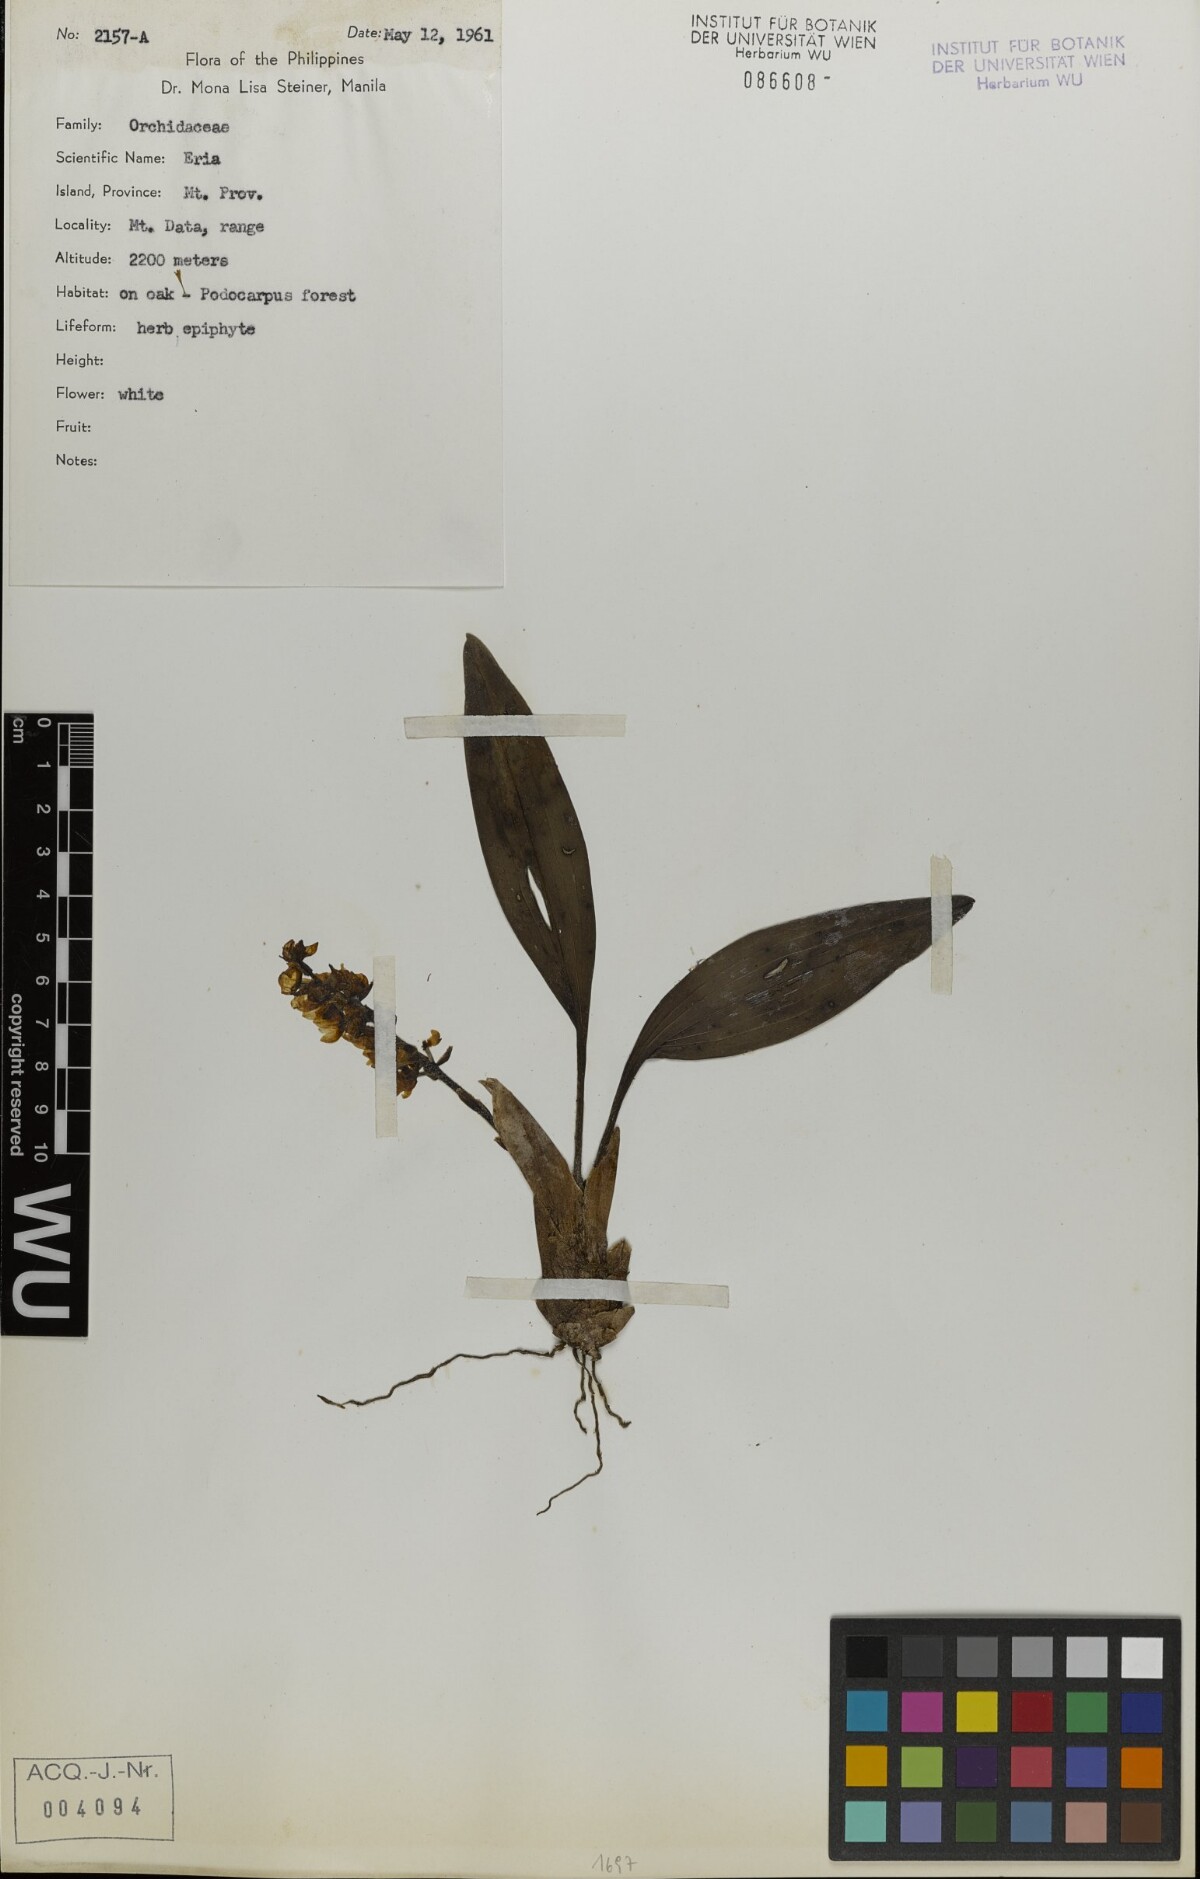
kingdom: Plantae
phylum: Tracheophyta
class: Liliopsida
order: Asparagales
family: Orchidaceae
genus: Eria
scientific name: Eria
